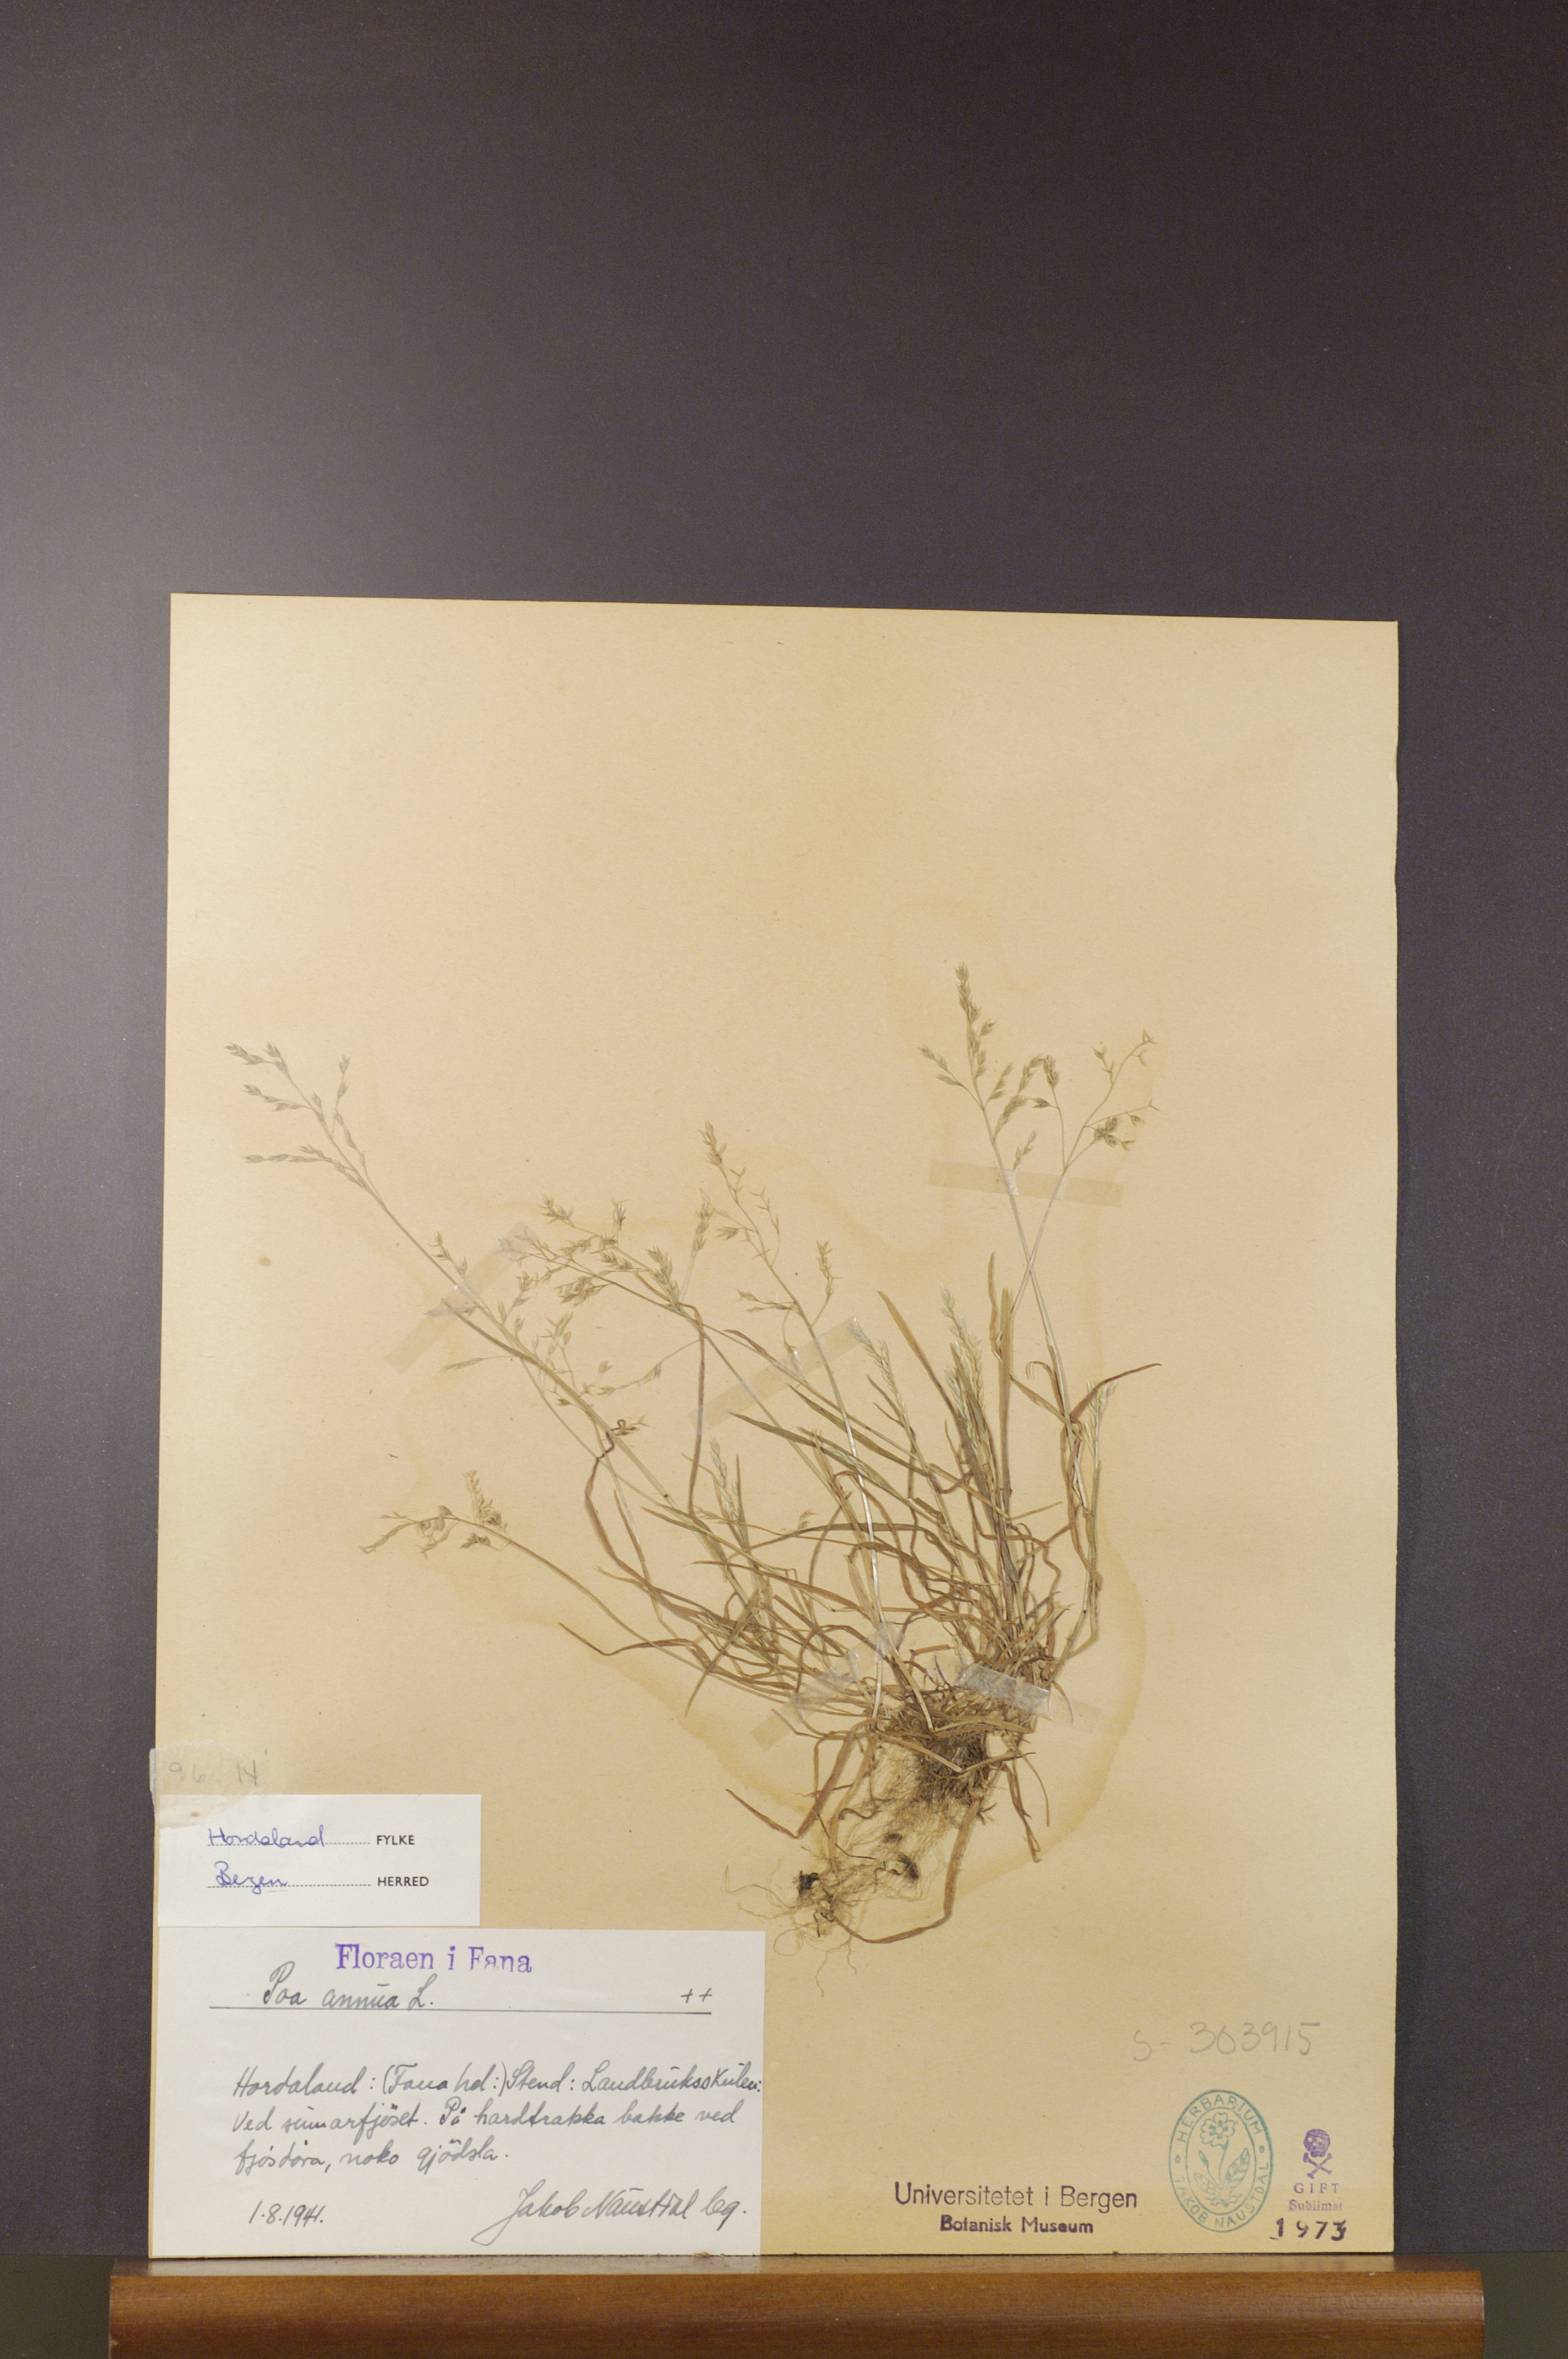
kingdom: Plantae
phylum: Tracheophyta
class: Liliopsida
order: Poales
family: Poaceae
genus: Poa
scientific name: Poa annua
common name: Annual bluegrass
